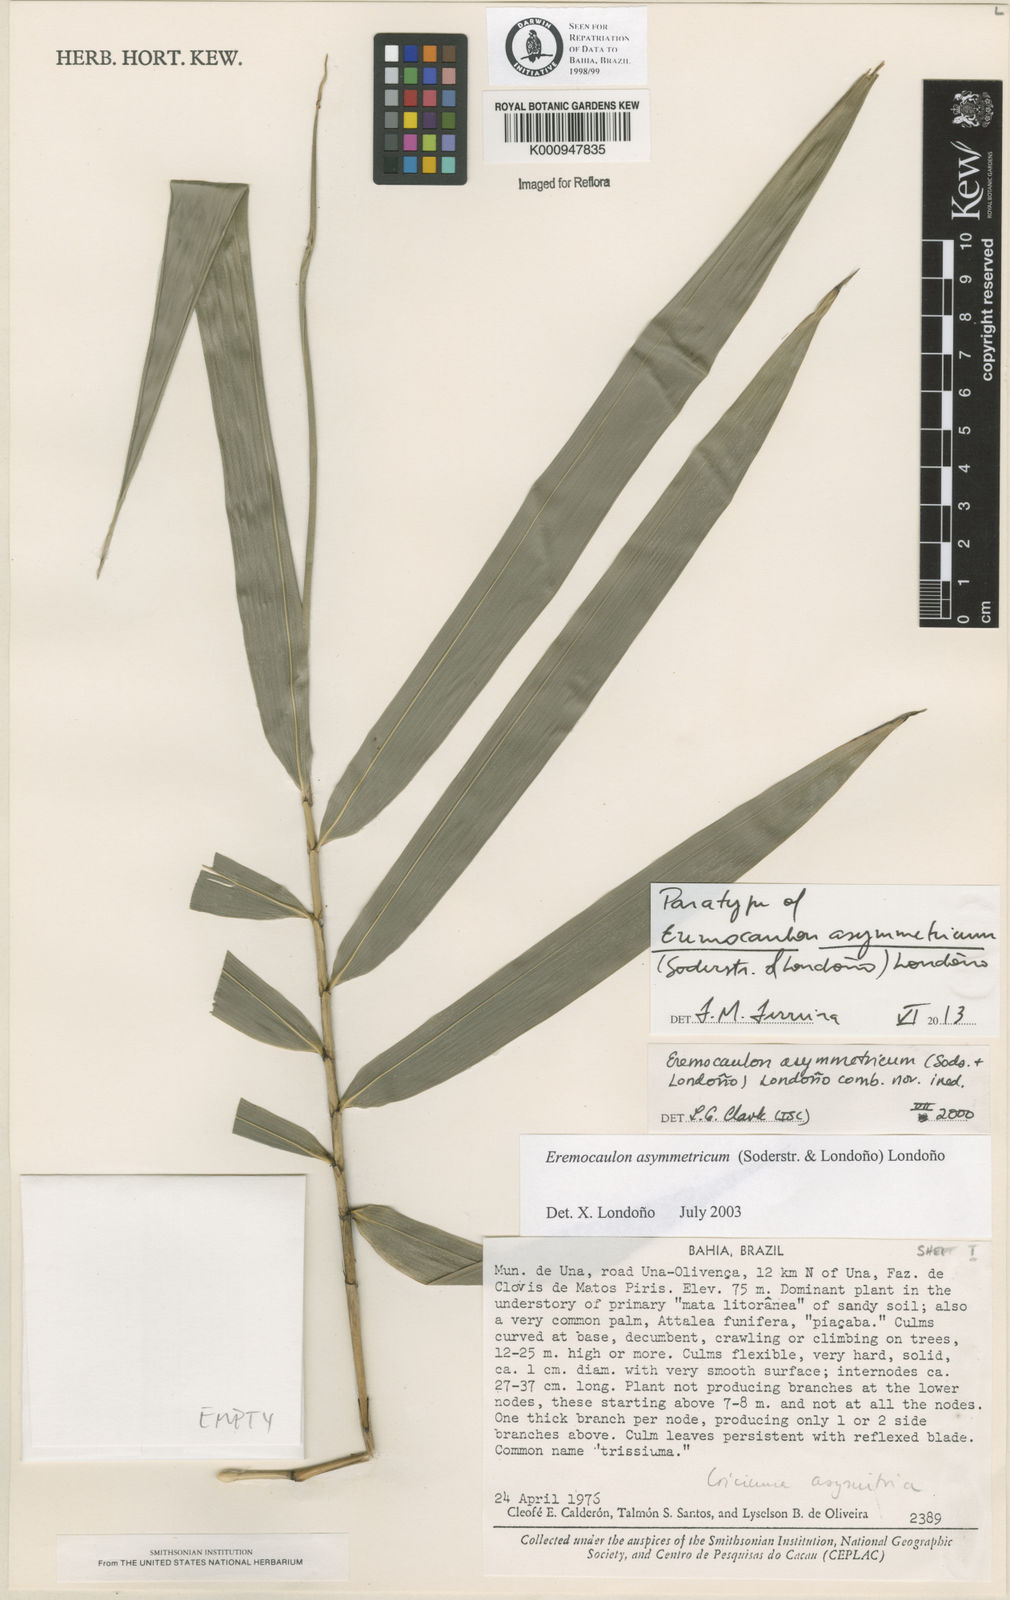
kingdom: Plantae
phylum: Tracheophyta
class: Liliopsida
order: Poales
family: Poaceae
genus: Eremocaulon
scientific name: Eremocaulon asymmetricum
